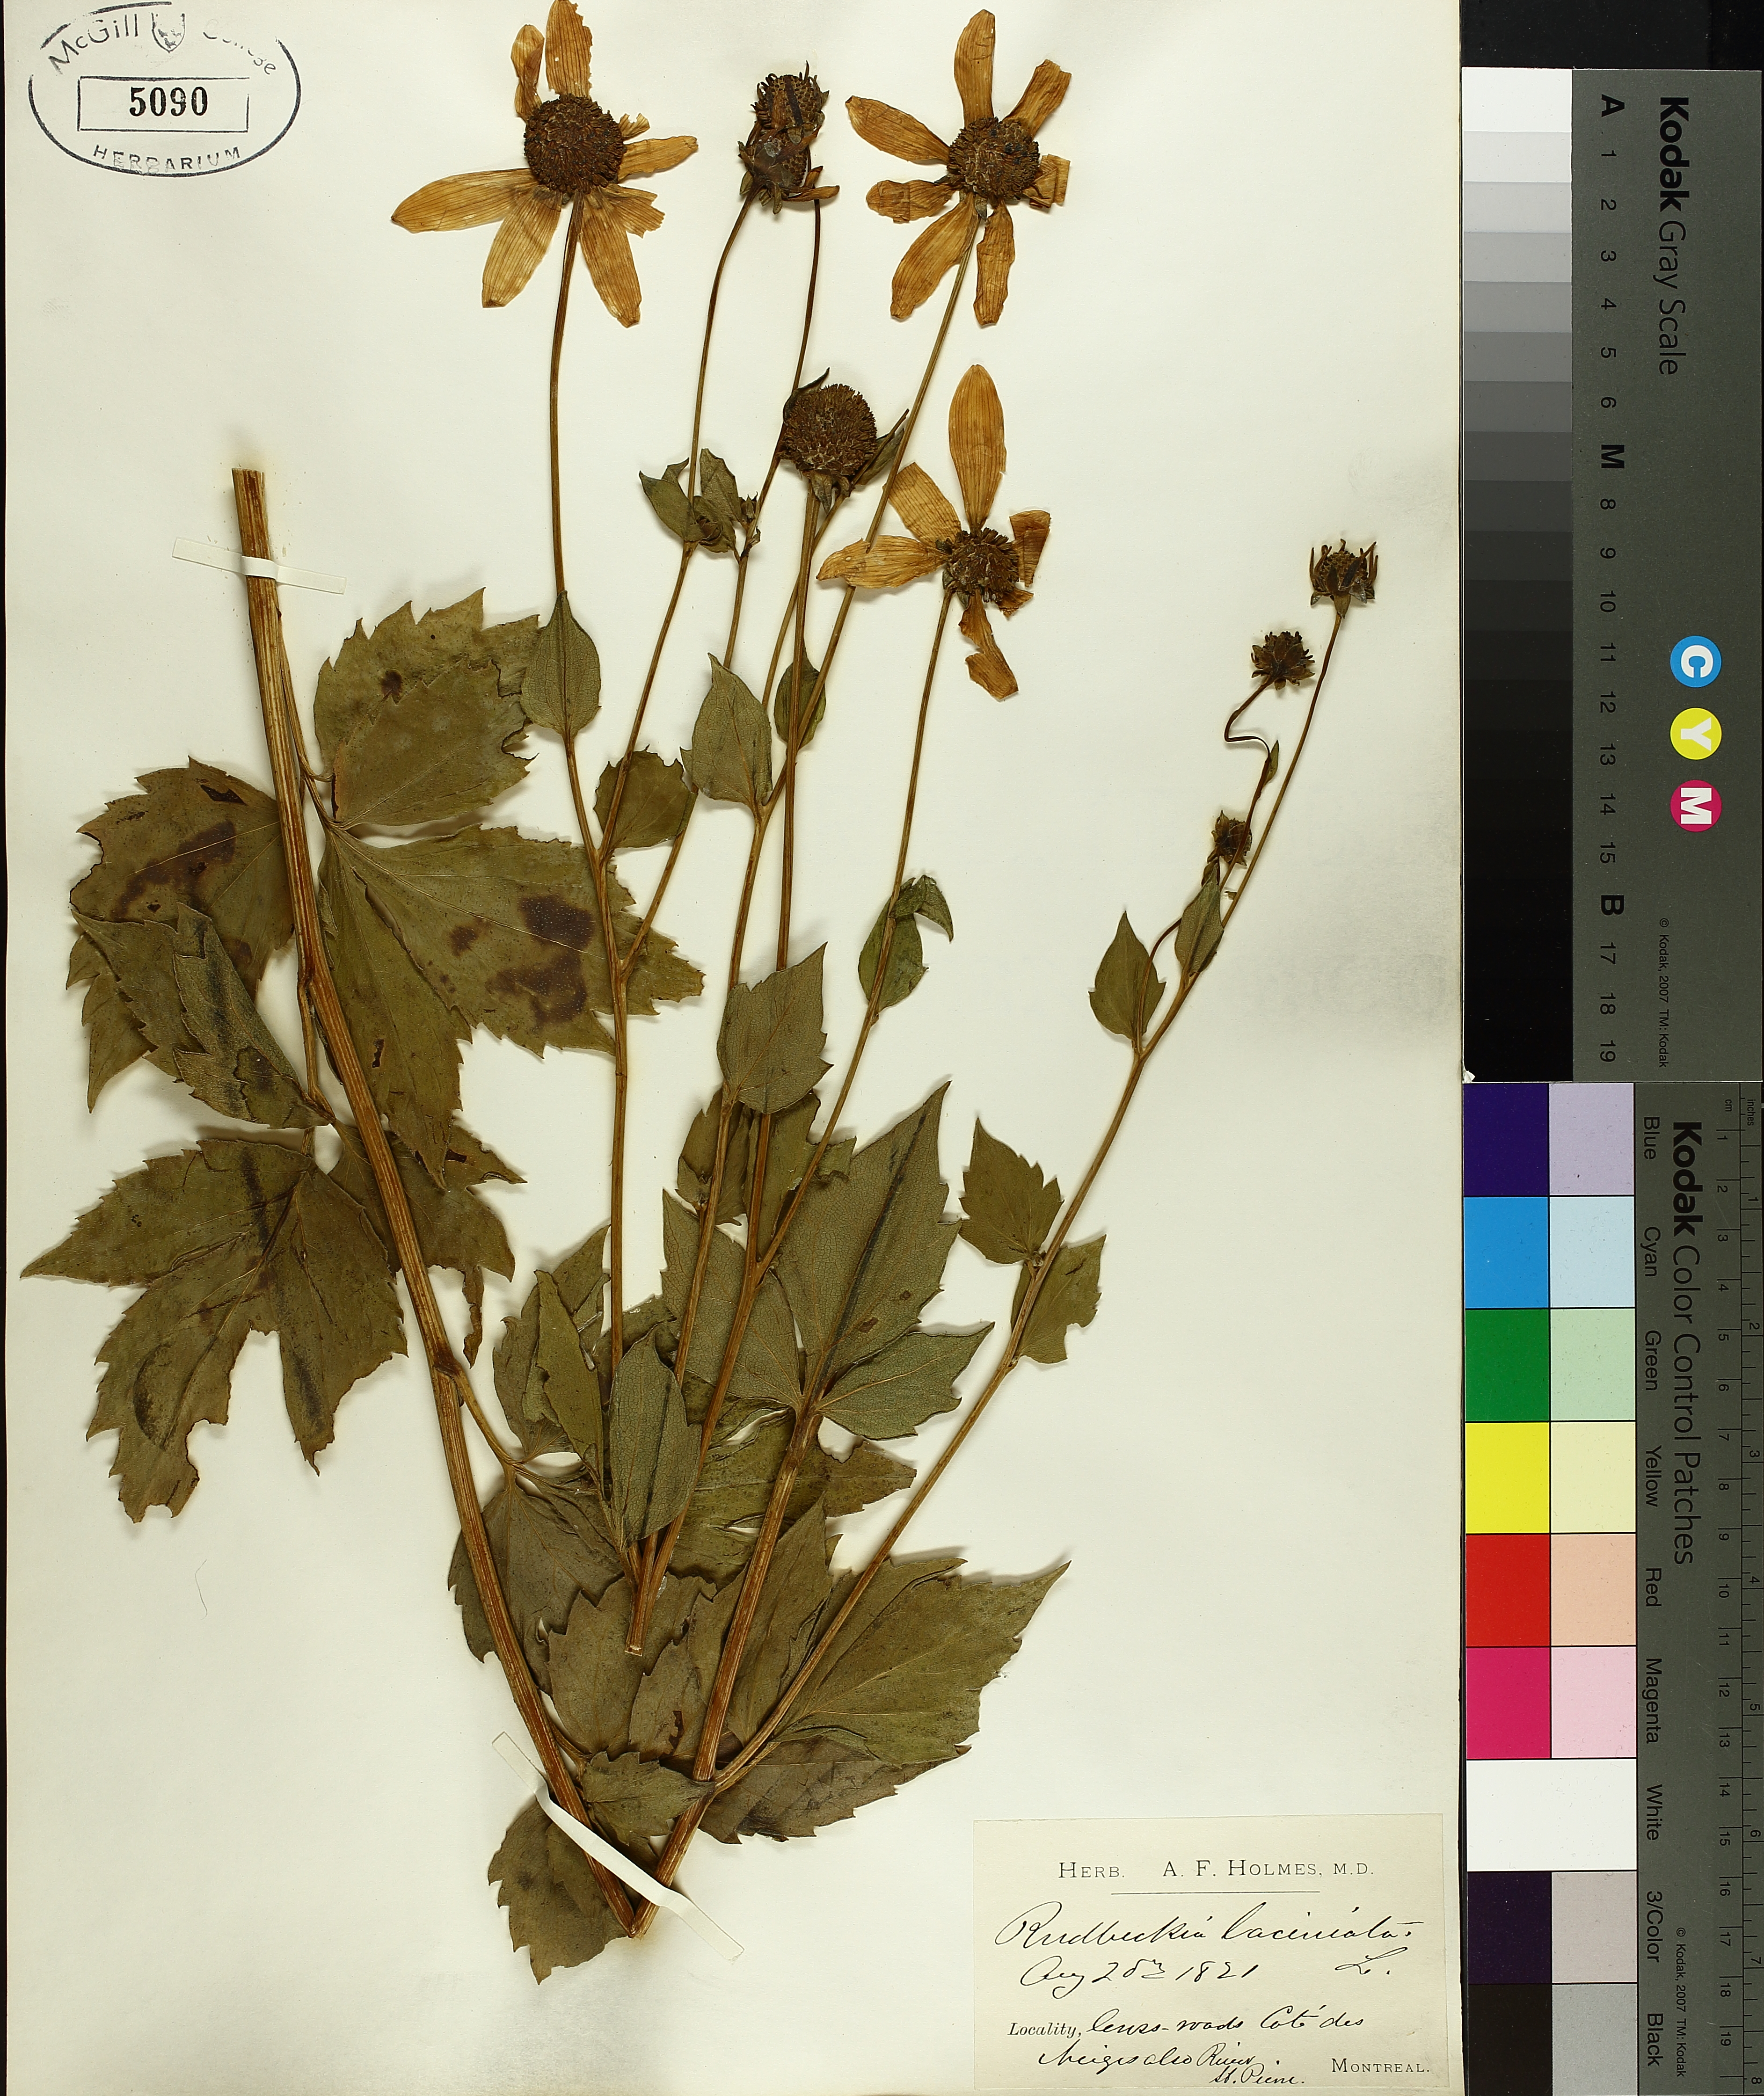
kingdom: Plantae
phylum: Tracheophyta
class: Magnoliopsida
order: Asterales
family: Asteraceae
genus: Rudbeckia
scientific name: Rudbeckia laciniata
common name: Coneflower
